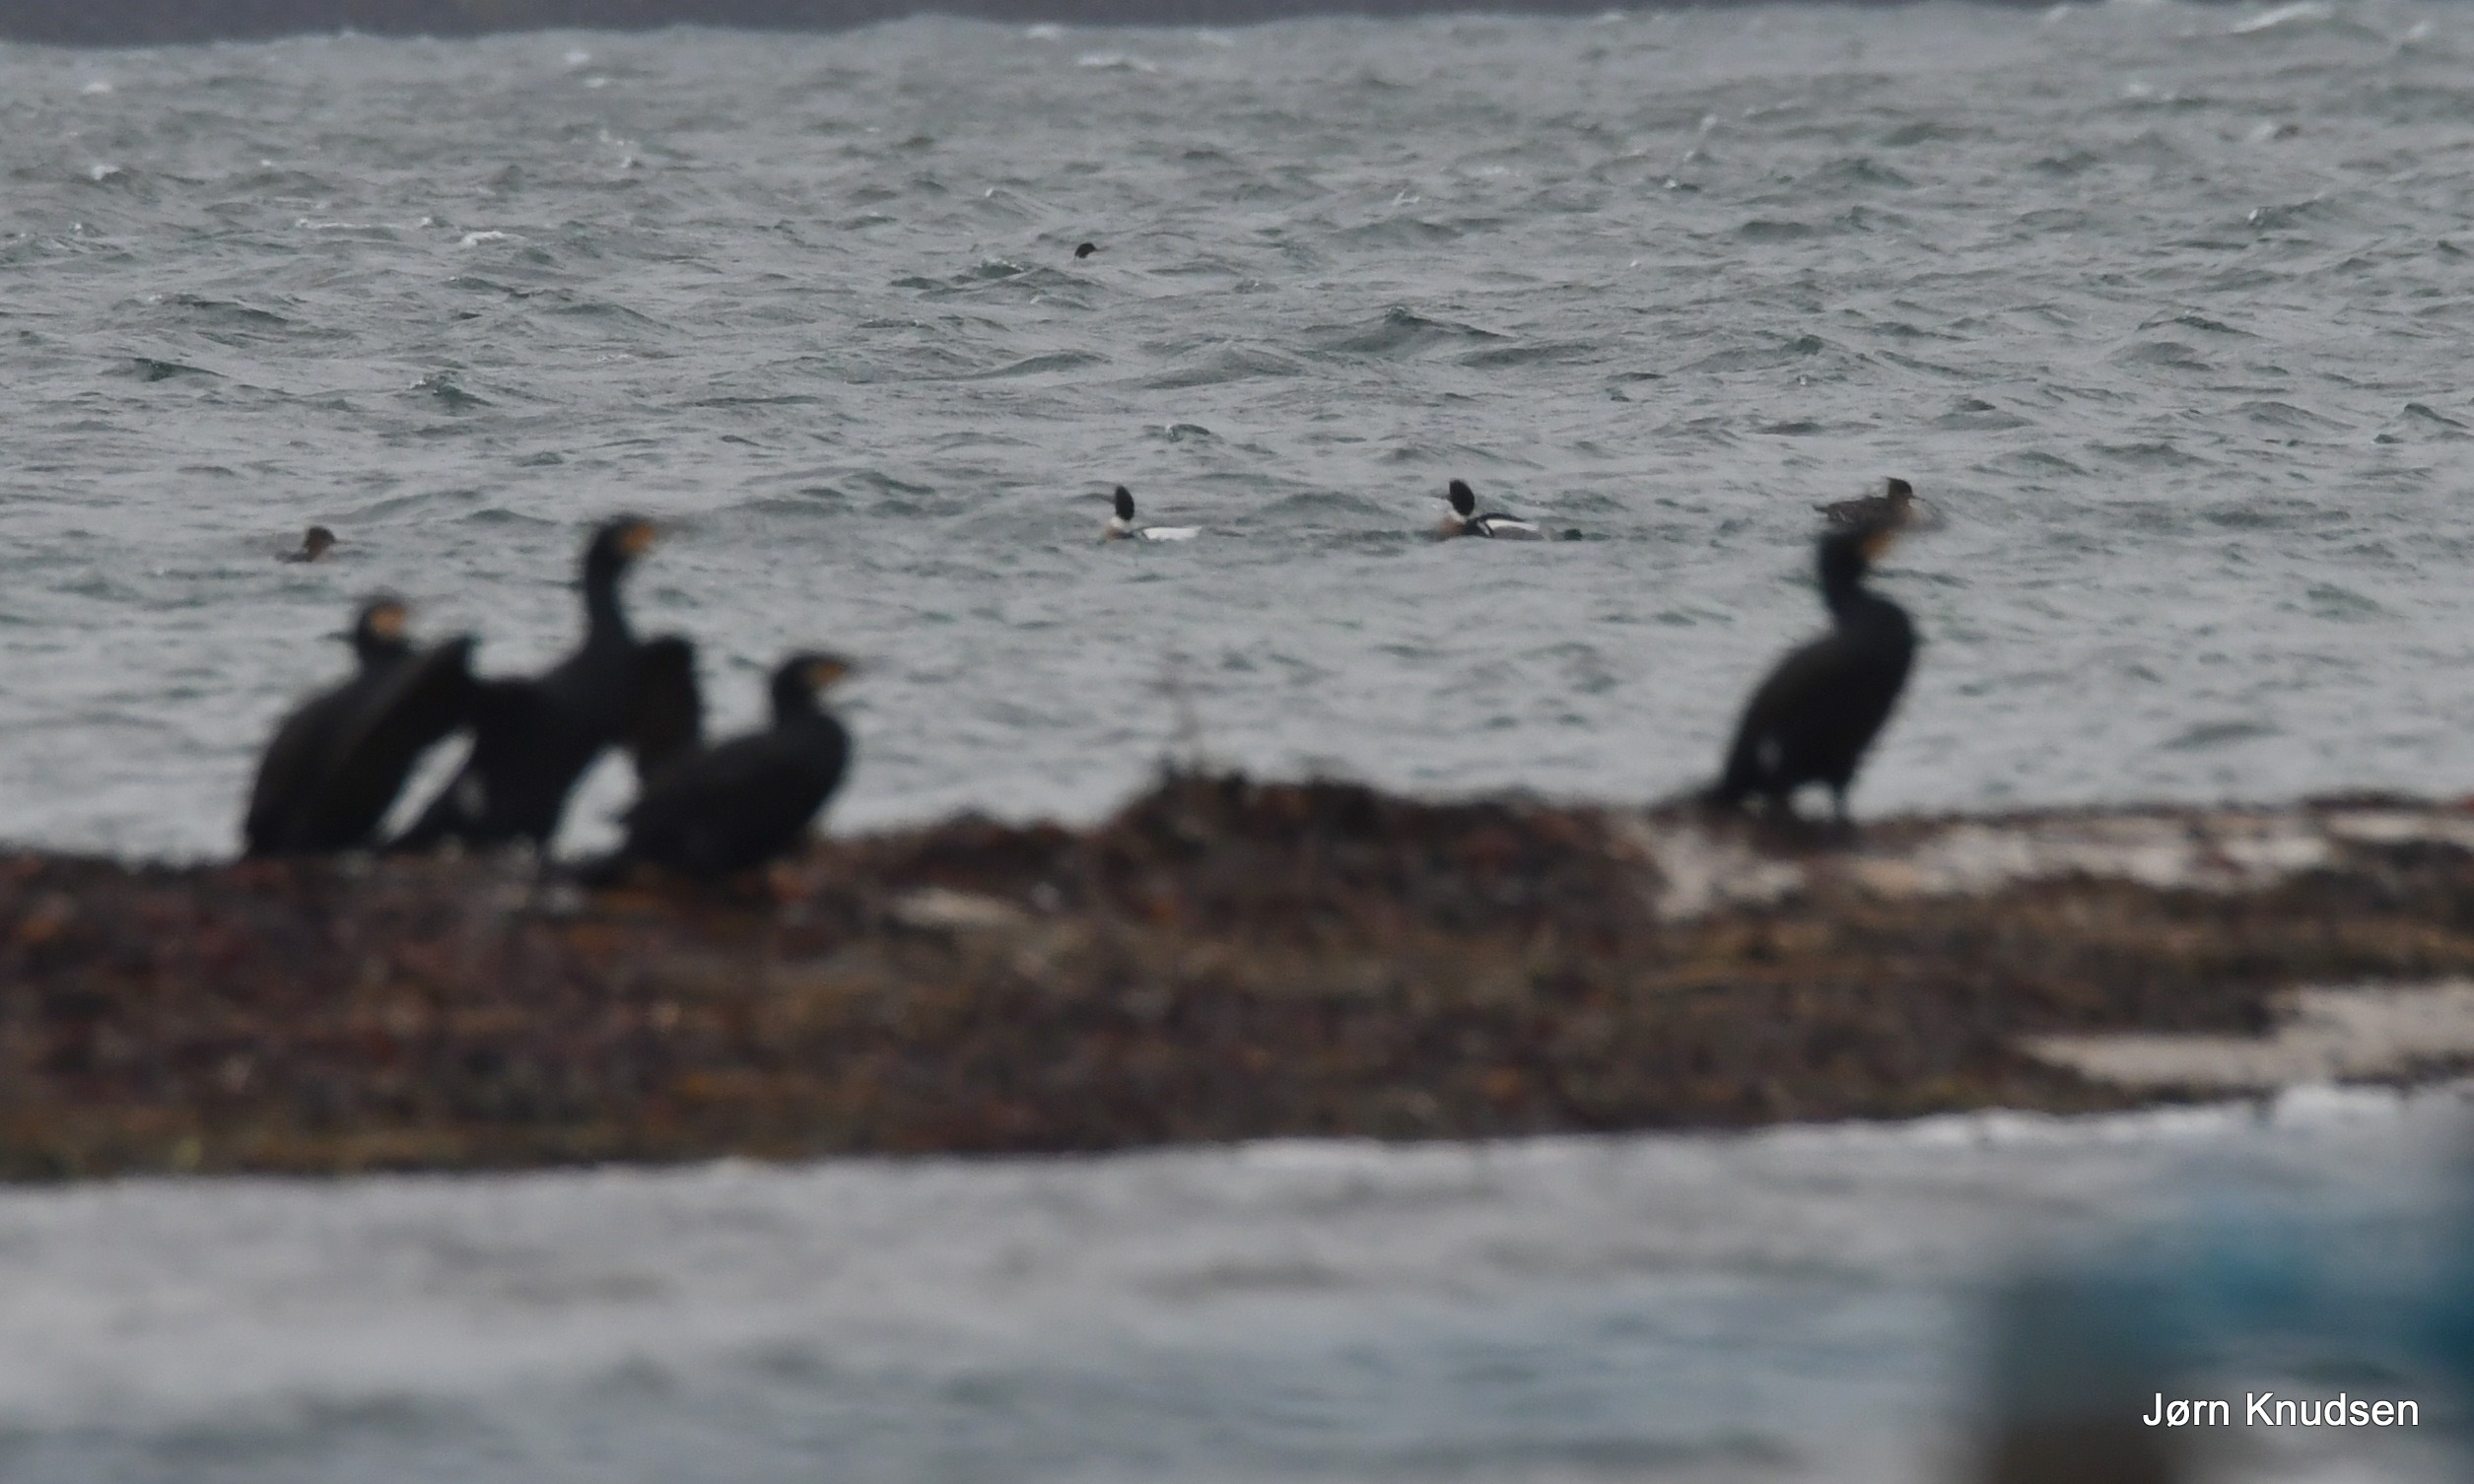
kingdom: Animalia
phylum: Chordata
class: Aves
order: Anseriformes
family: Anatidae
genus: Mergus
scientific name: Mergus serrator
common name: Toppet skallesluger
